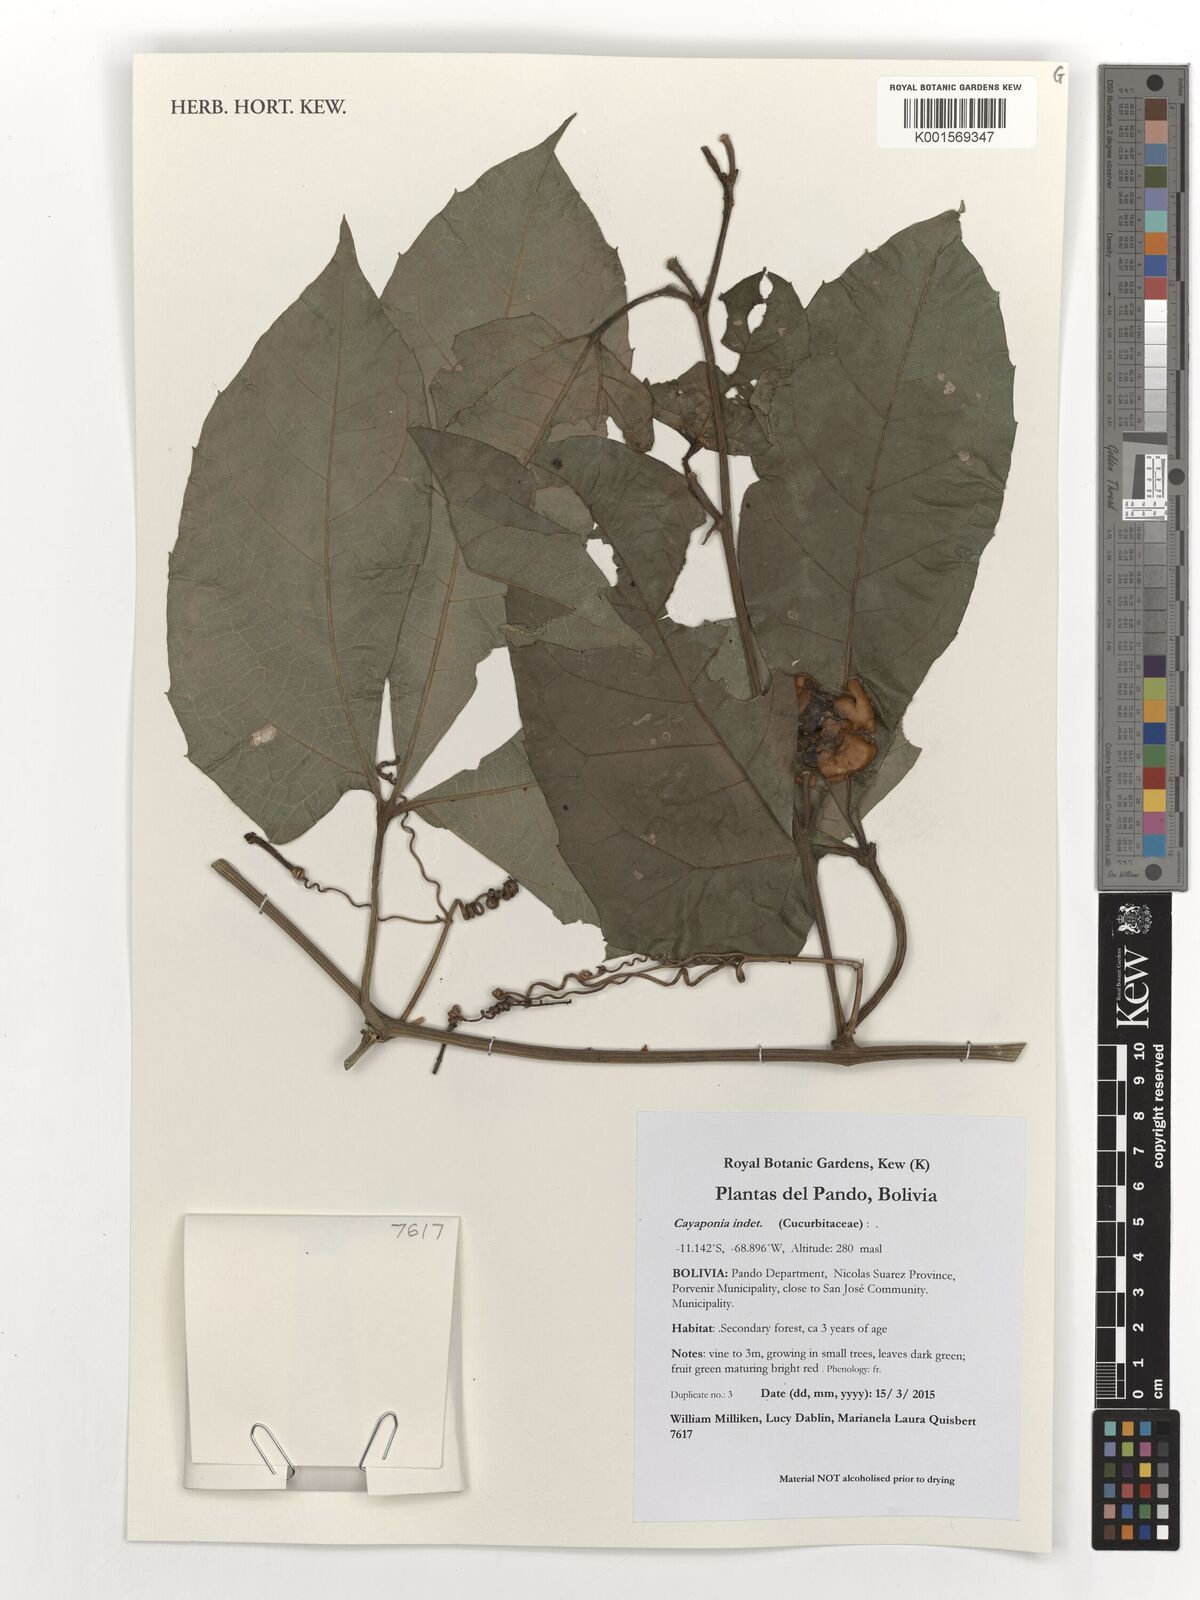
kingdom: Plantae
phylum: Tracheophyta
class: Magnoliopsida
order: Cucurbitales
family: Cucurbitaceae
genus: Cayaponia
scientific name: Cayaponia
